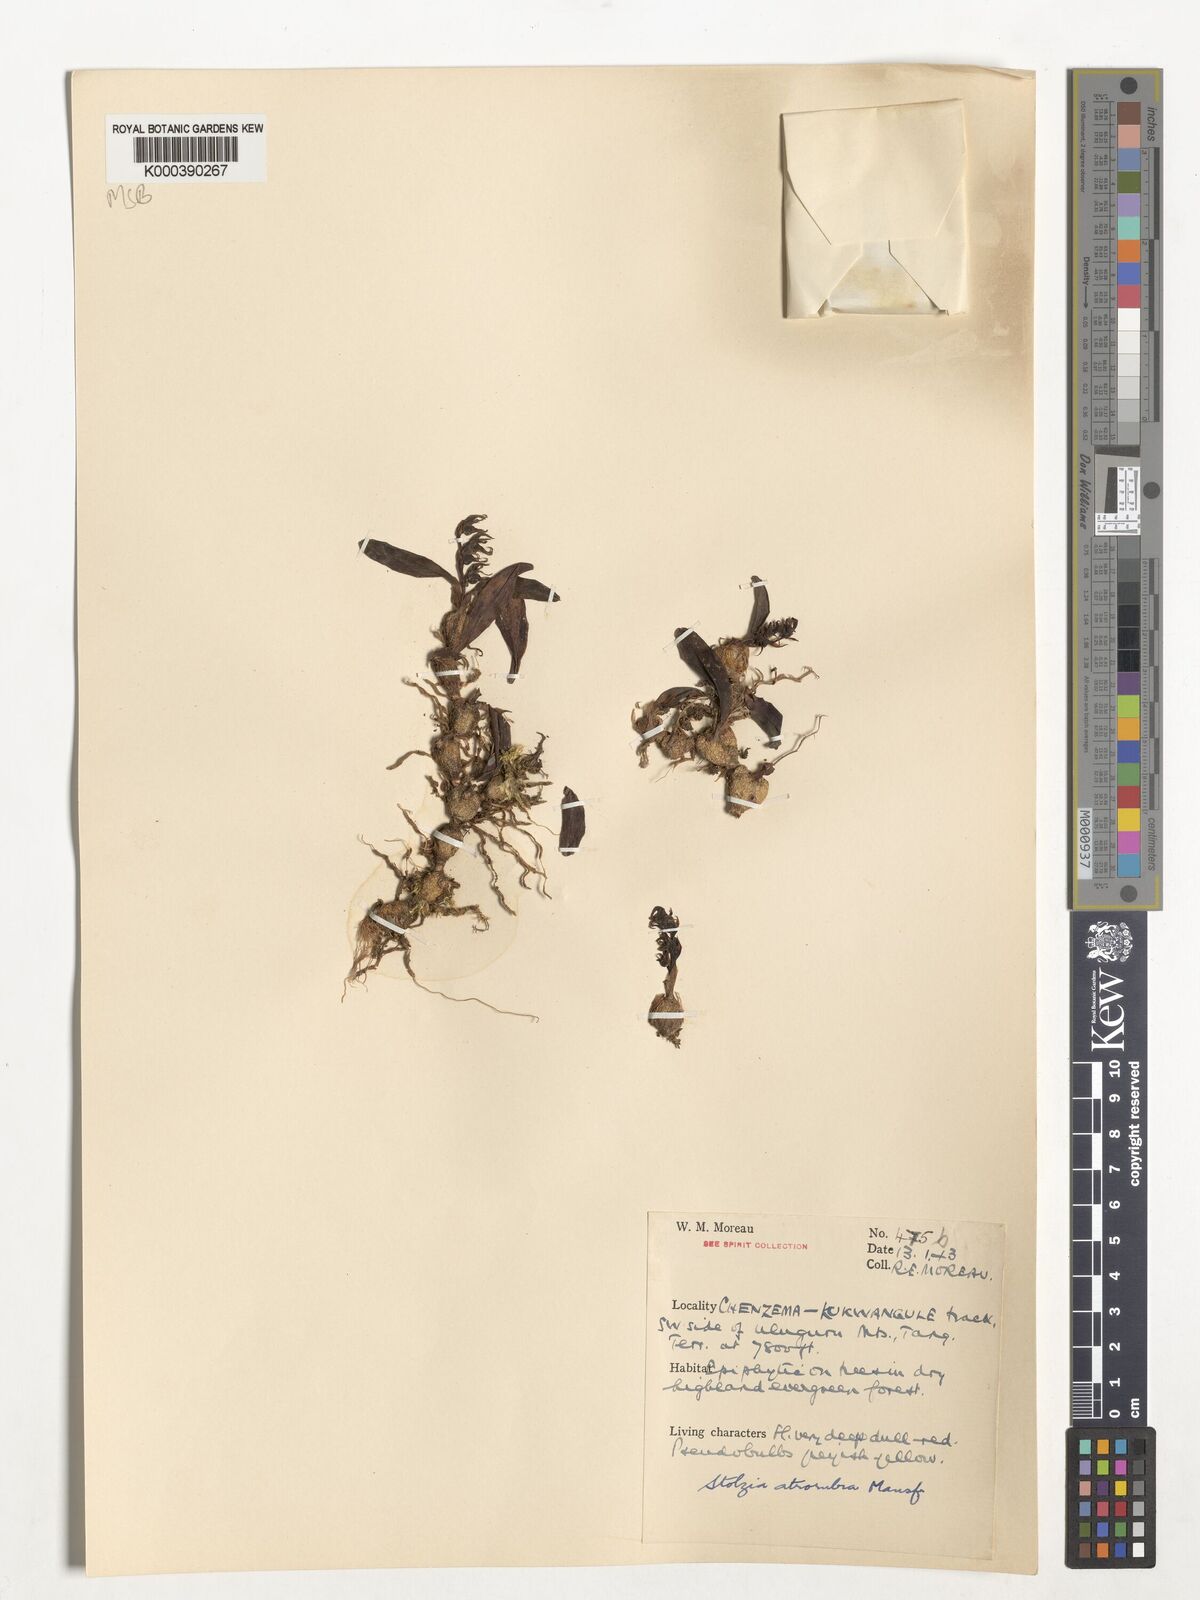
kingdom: Plantae
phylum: Tracheophyta
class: Liliopsida
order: Asparagales
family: Orchidaceae
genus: Porpax
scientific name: Porpax atrorubra
